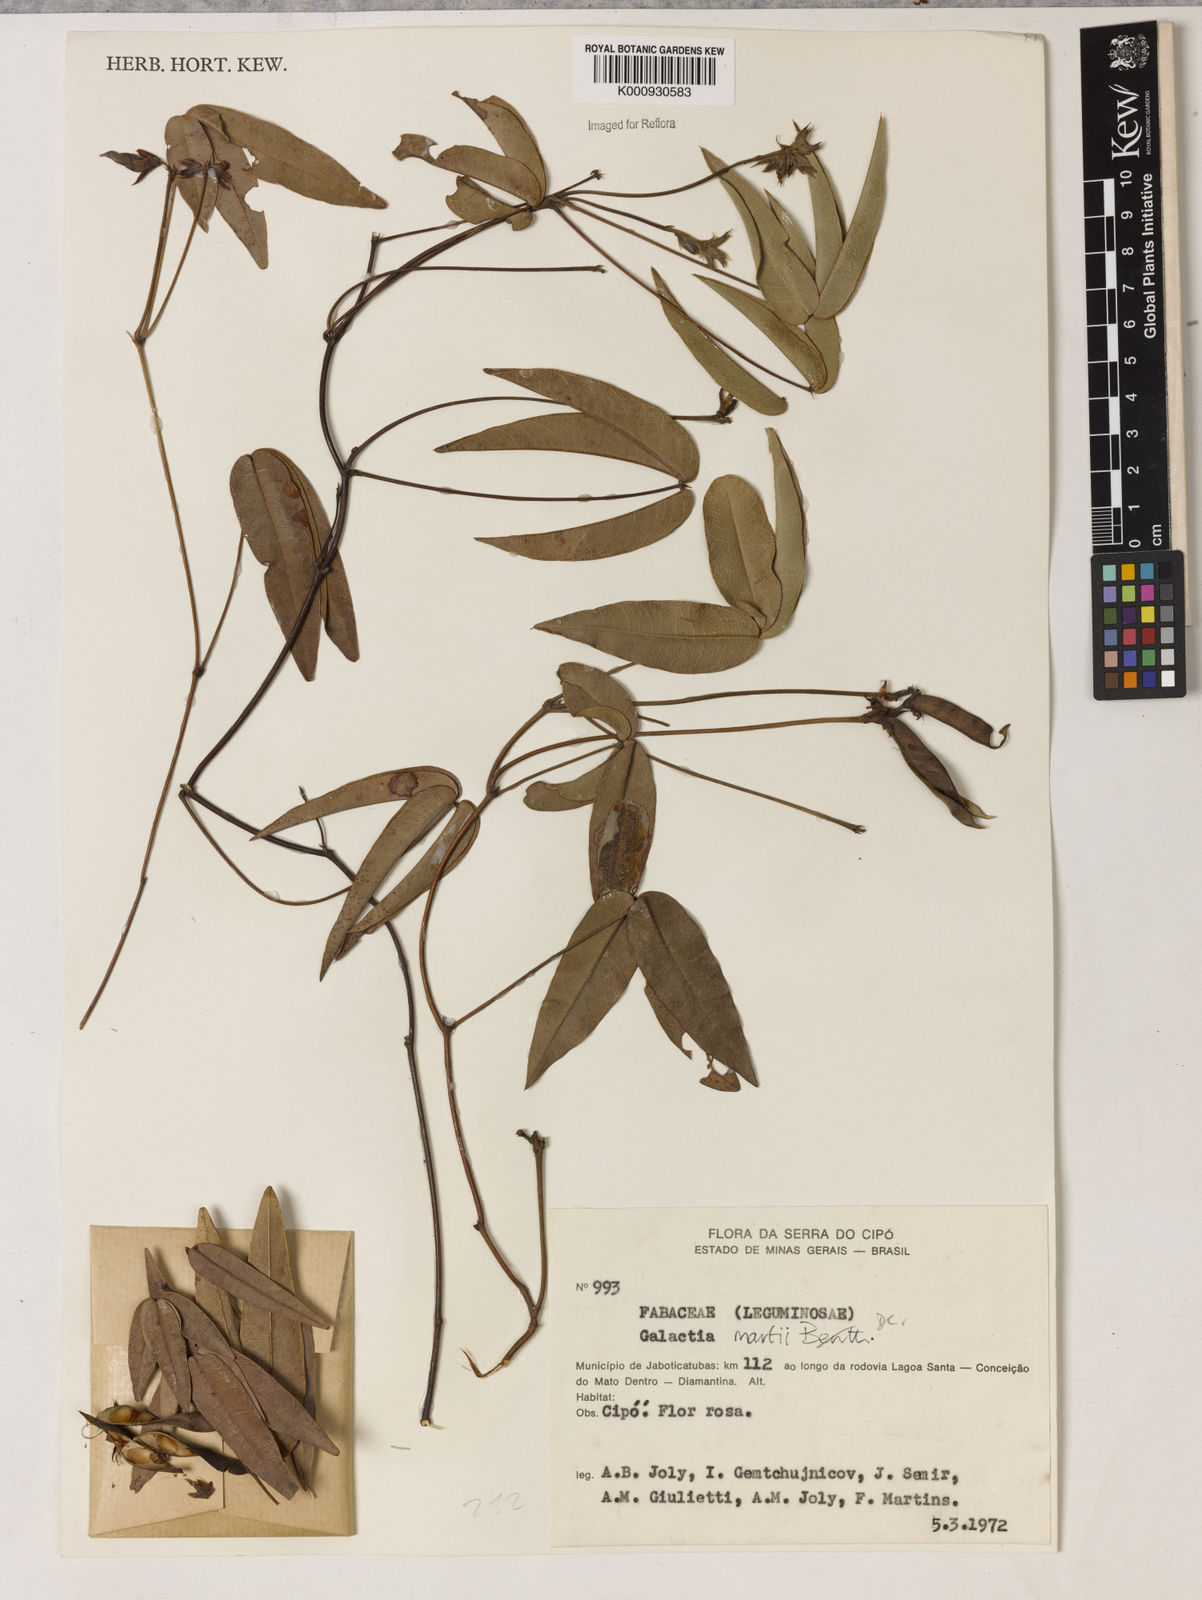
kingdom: Plantae
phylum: Tracheophyta
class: Magnoliopsida
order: Fabales
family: Fabaceae
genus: Betencourtia
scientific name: Betencourtia neesii
